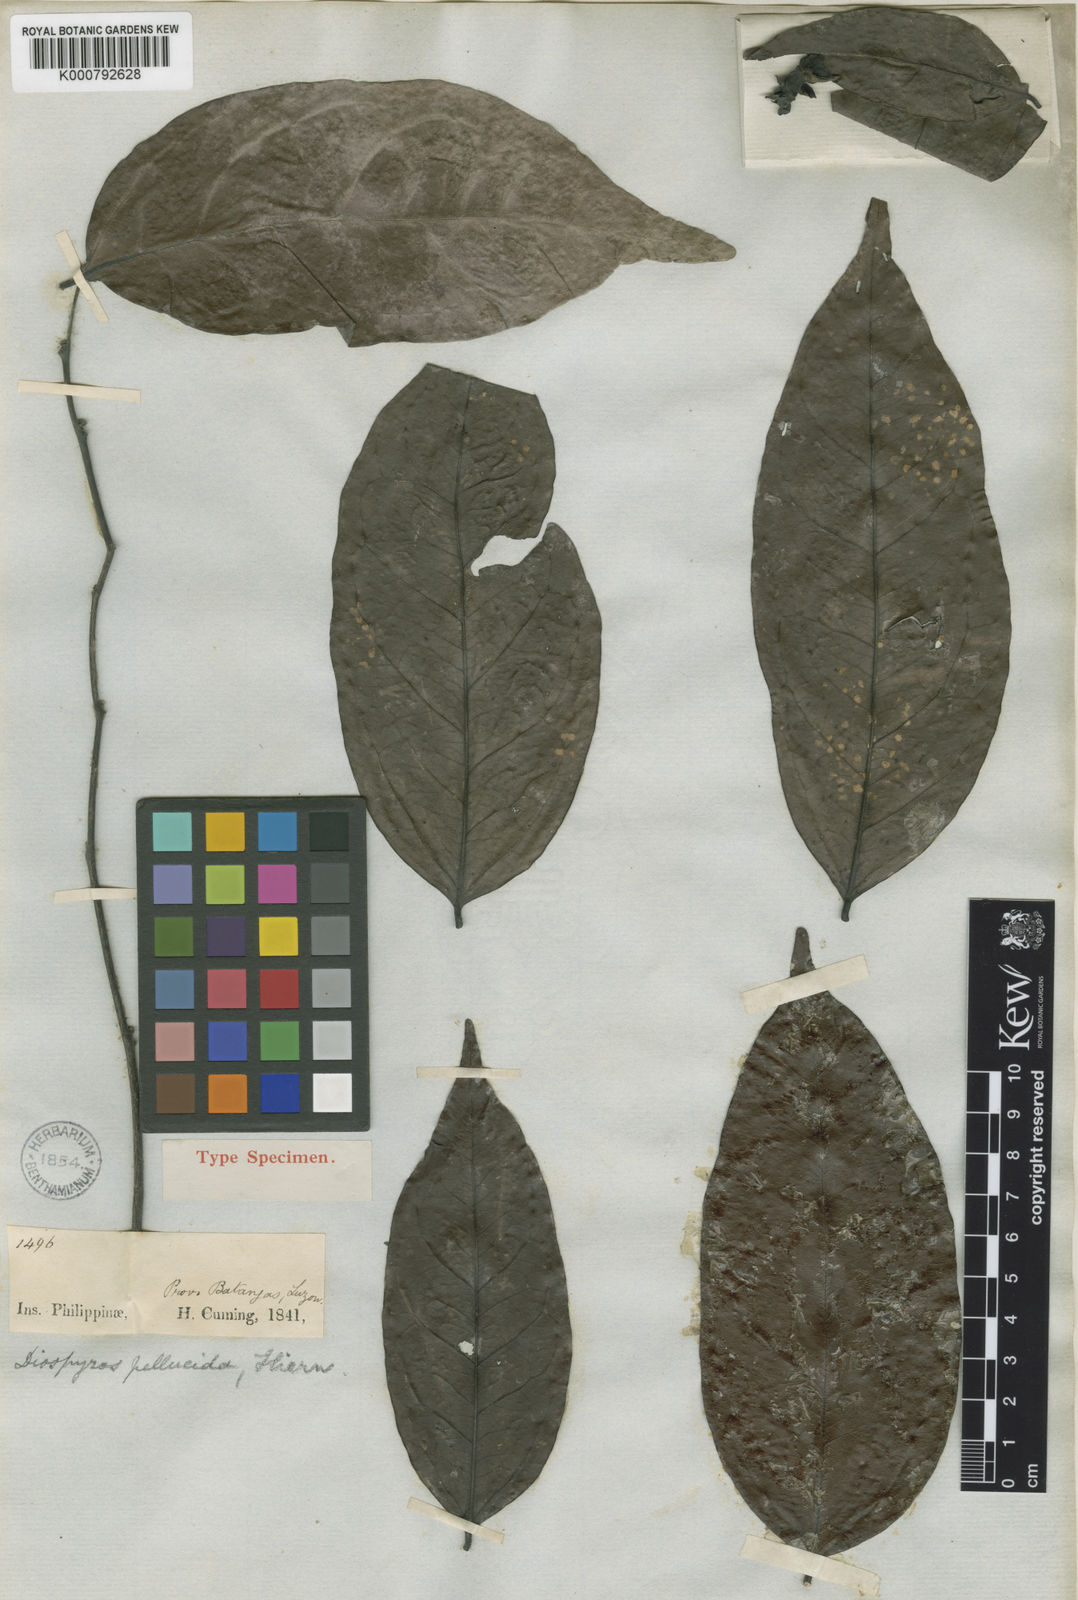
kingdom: Plantae
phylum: Tracheophyta
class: Magnoliopsida
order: Ericales
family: Ebenaceae
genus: Diospyros
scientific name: Diospyros hebecarpa
